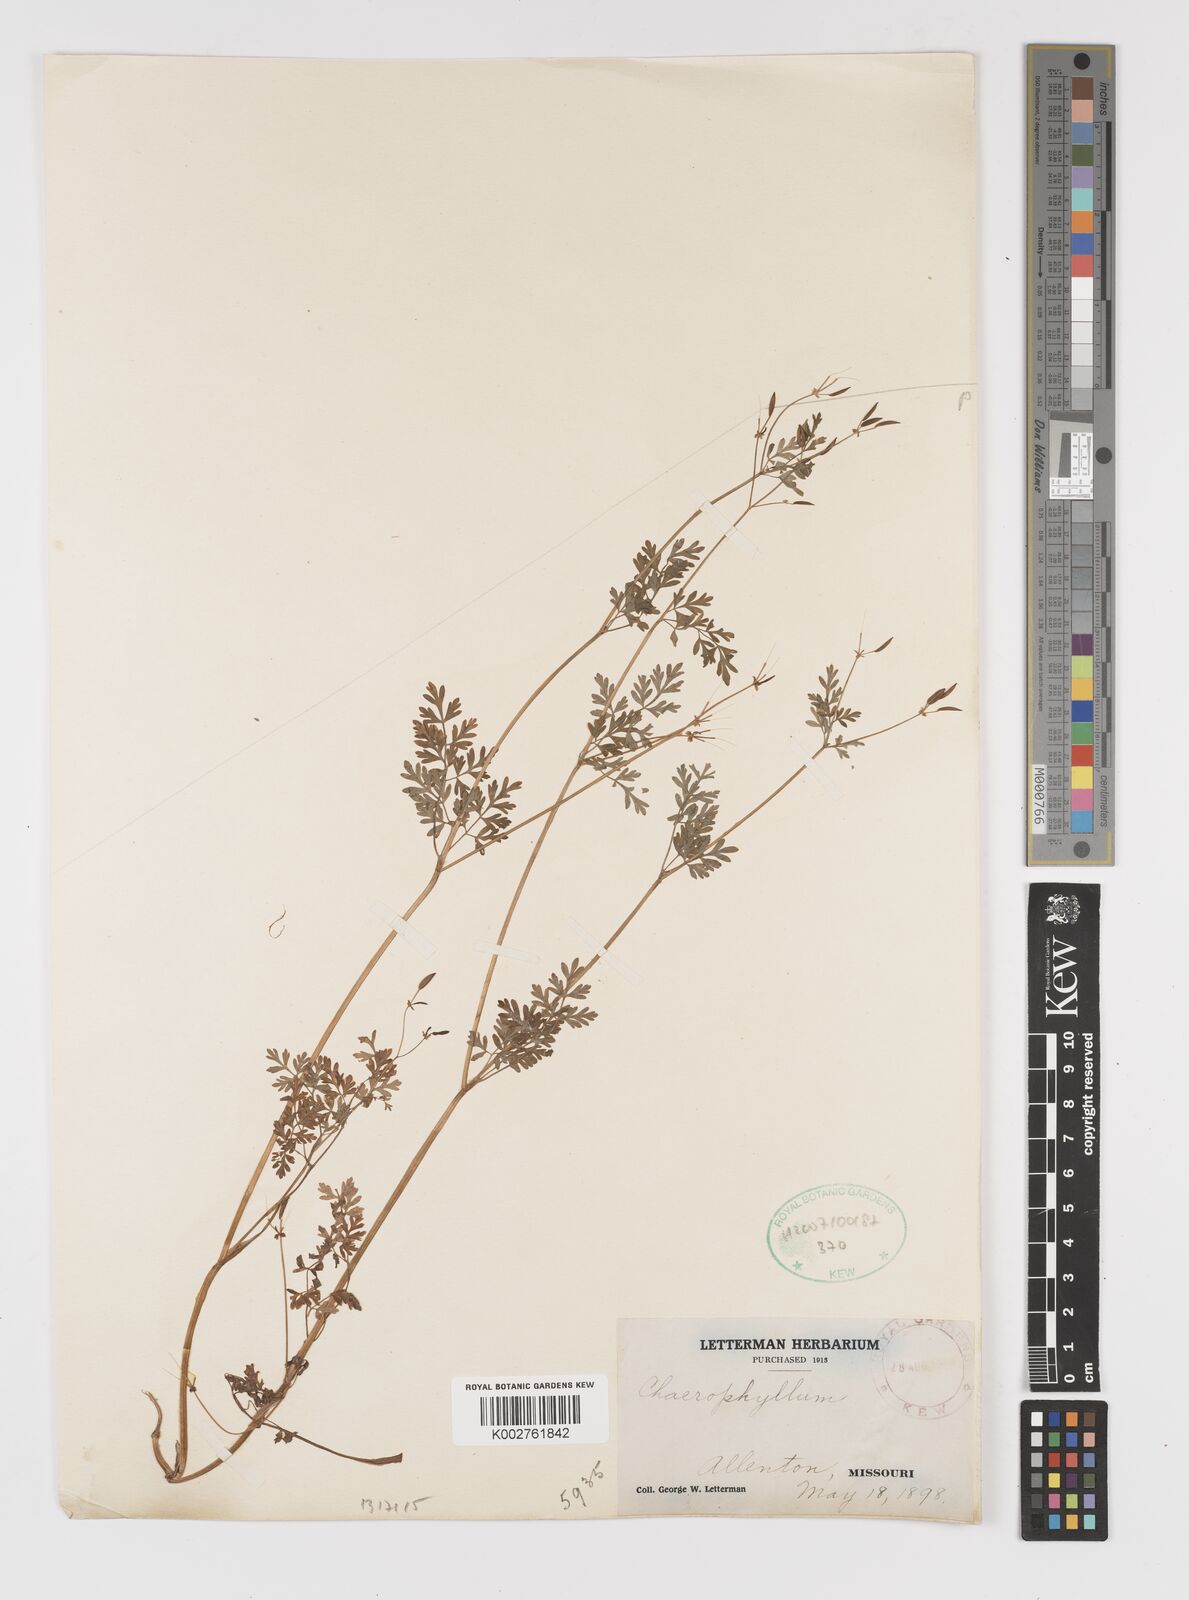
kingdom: Plantae
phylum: Tracheophyta
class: Magnoliopsida
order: Apiales
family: Apiaceae
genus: Chaerophyllum
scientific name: Chaerophyllum procumbens
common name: Spreading chervil
